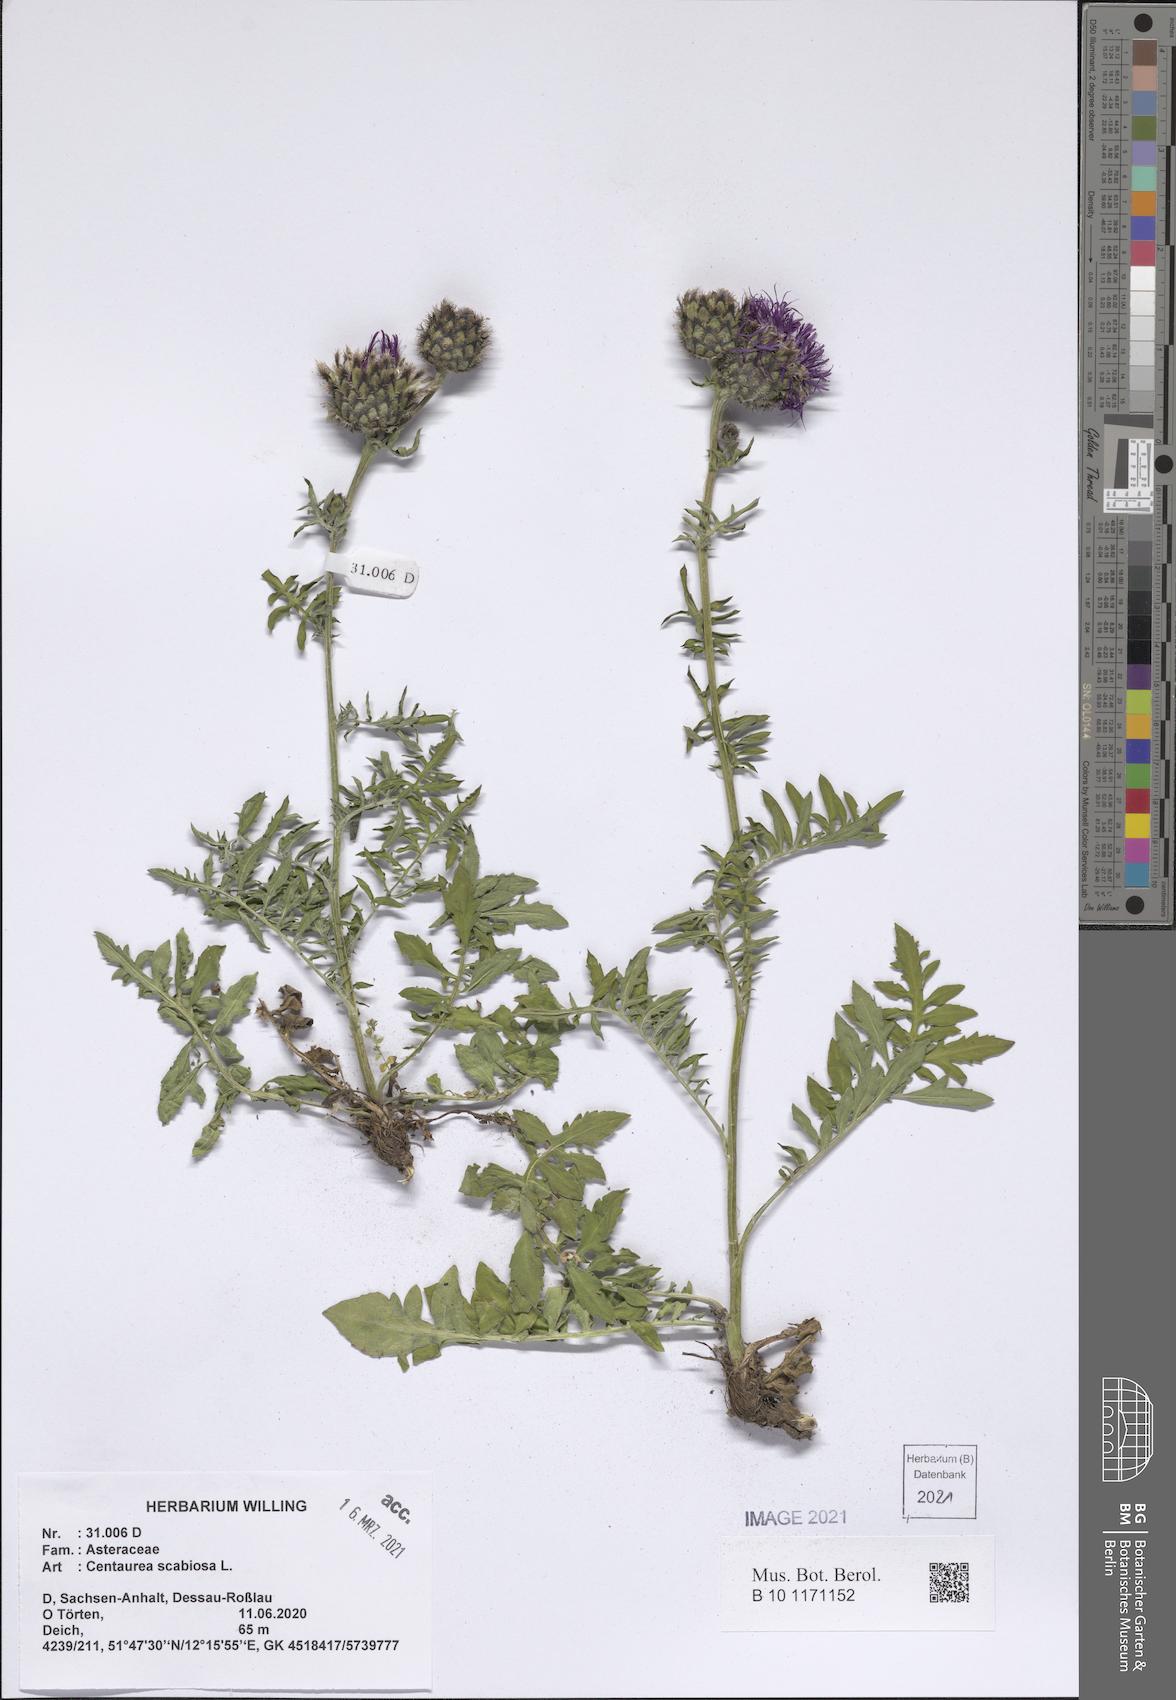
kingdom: Plantae
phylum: Tracheophyta
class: Magnoliopsida
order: Asterales
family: Asteraceae
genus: Centaurea
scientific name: Centaurea scabiosa
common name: Greater knapweed
